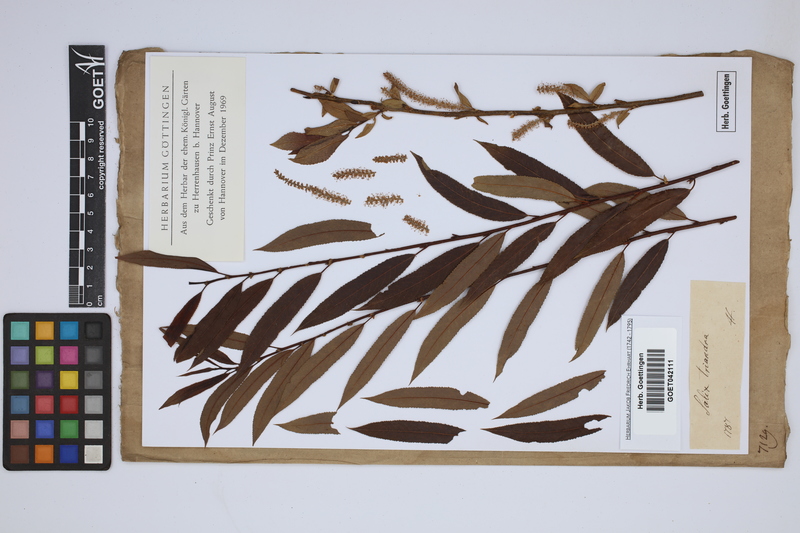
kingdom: Plantae
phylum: Tracheophyta
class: Magnoliopsida
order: Malpighiales
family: Salicaceae
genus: Salix
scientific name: Salix triandra
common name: Almond willow
